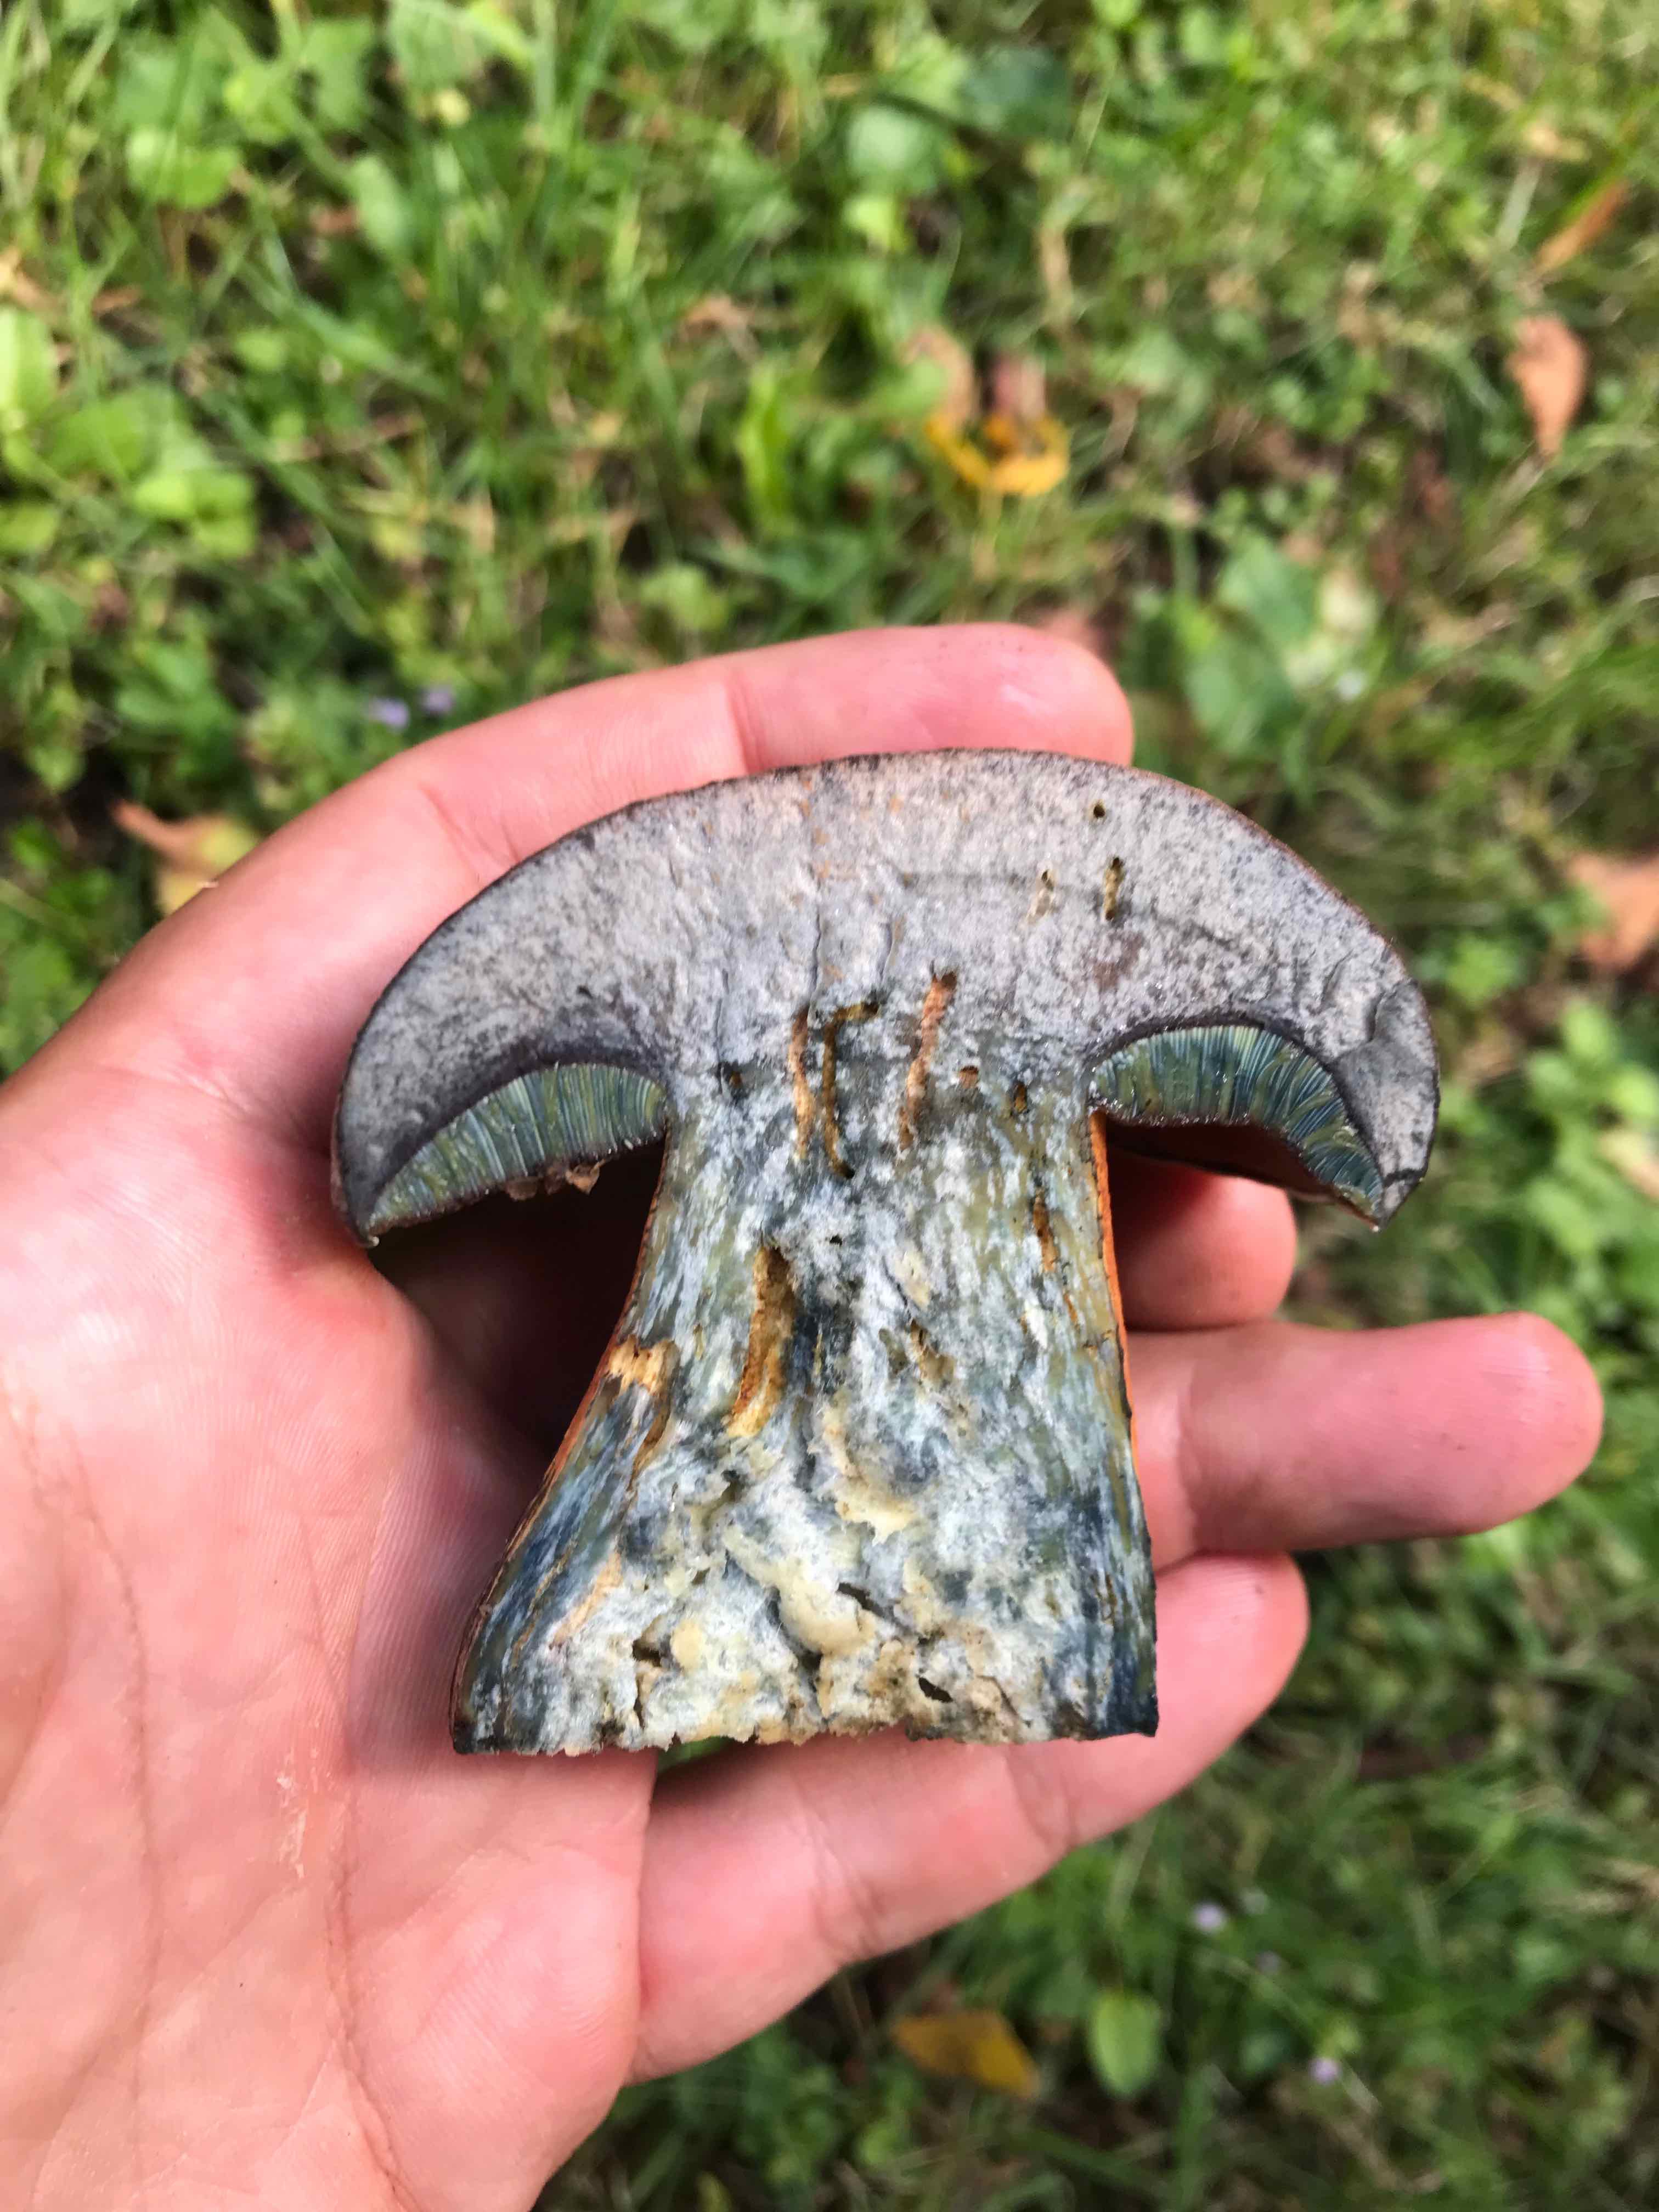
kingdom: Fungi
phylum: Basidiomycota
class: Agaricomycetes
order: Boletales
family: Boletaceae
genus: Suillellus
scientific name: Suillellus luridus
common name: netstokket indigorørhat
